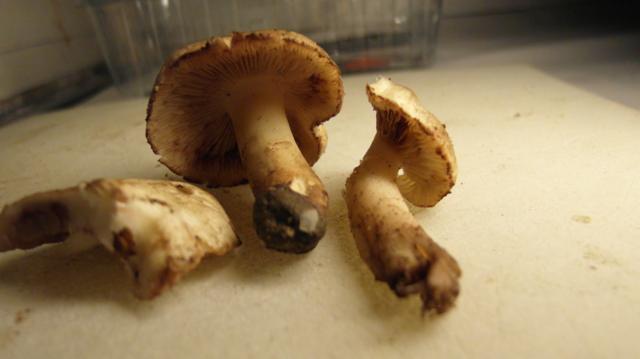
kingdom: Fungi
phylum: Basidiomycota
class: Agaricomycetes
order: Agaricales
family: Hymenogastraceae
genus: Hebeloma
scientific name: Hebeloma sacchariolens
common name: sødtduftende tåreblad
